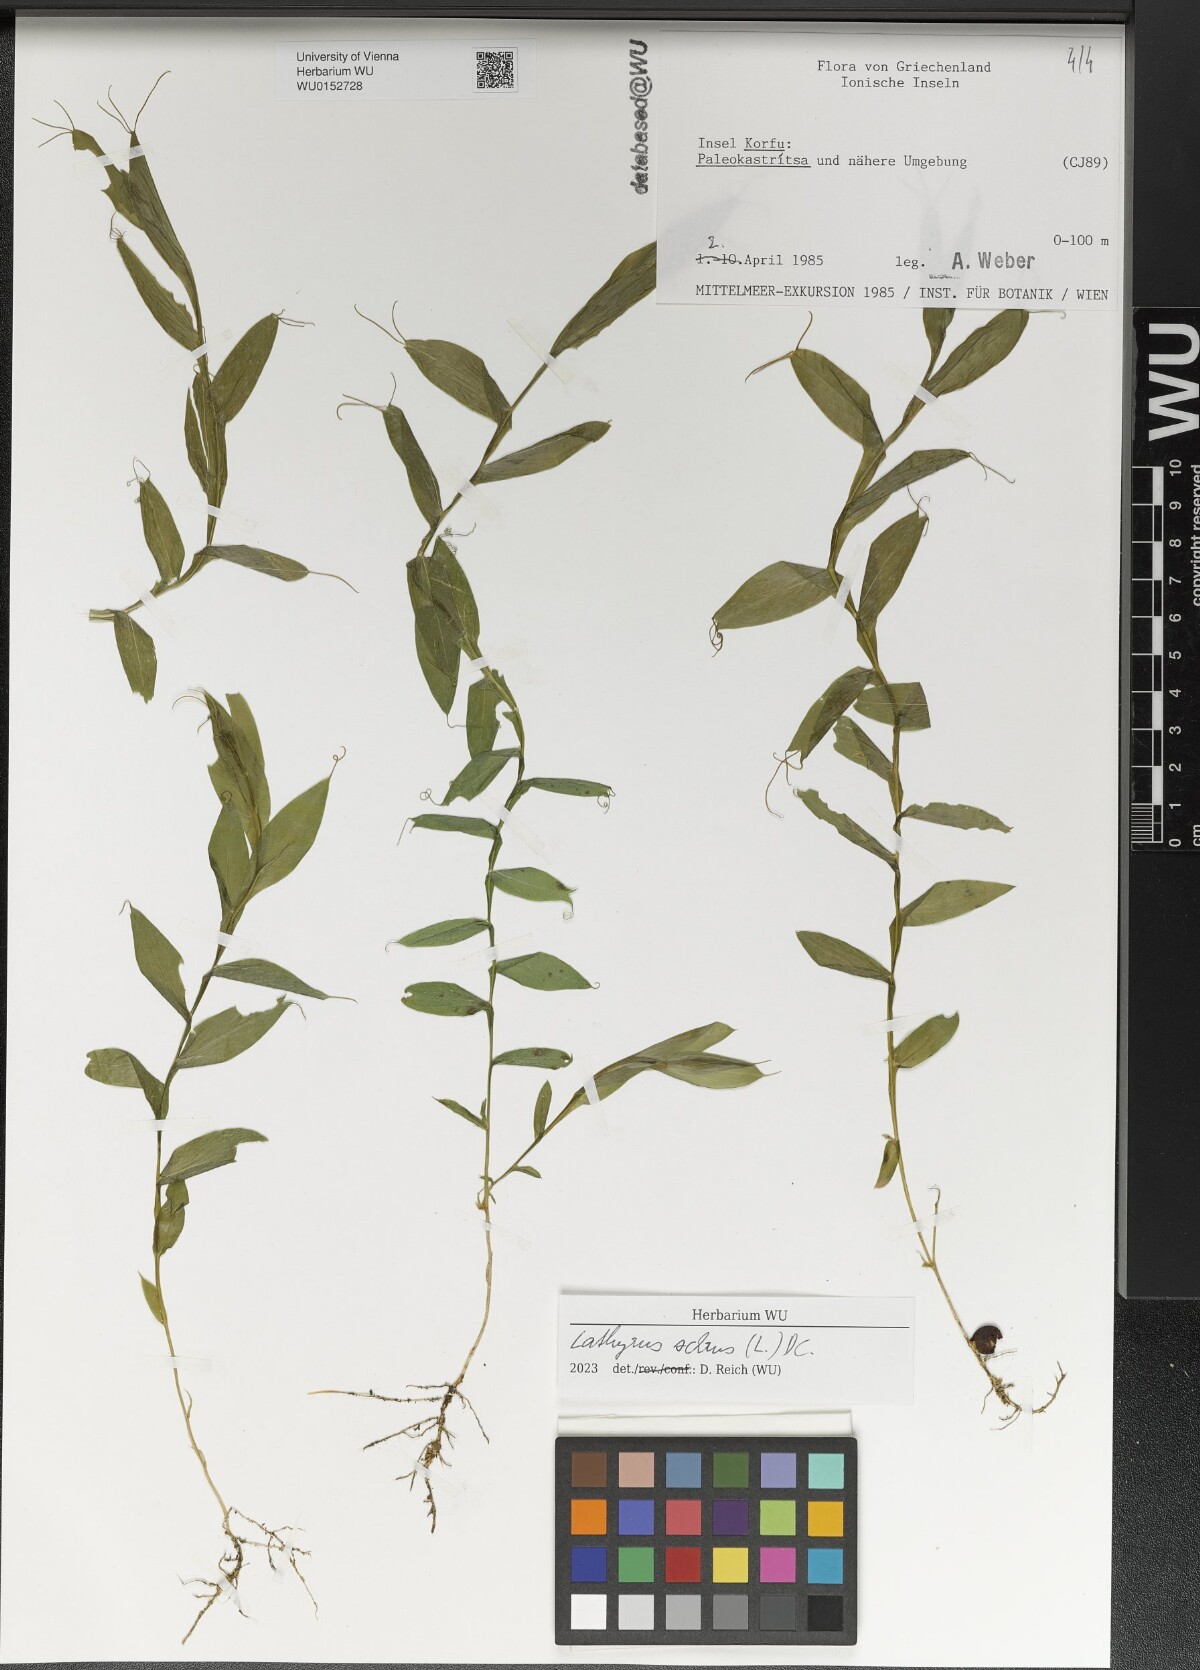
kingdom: Plantae
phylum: Tracheophyta
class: Magnoliopsida
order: Fabales
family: Fabaceae
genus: Lathyrus
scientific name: Lathyrus ochrus
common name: Winged vetchling
